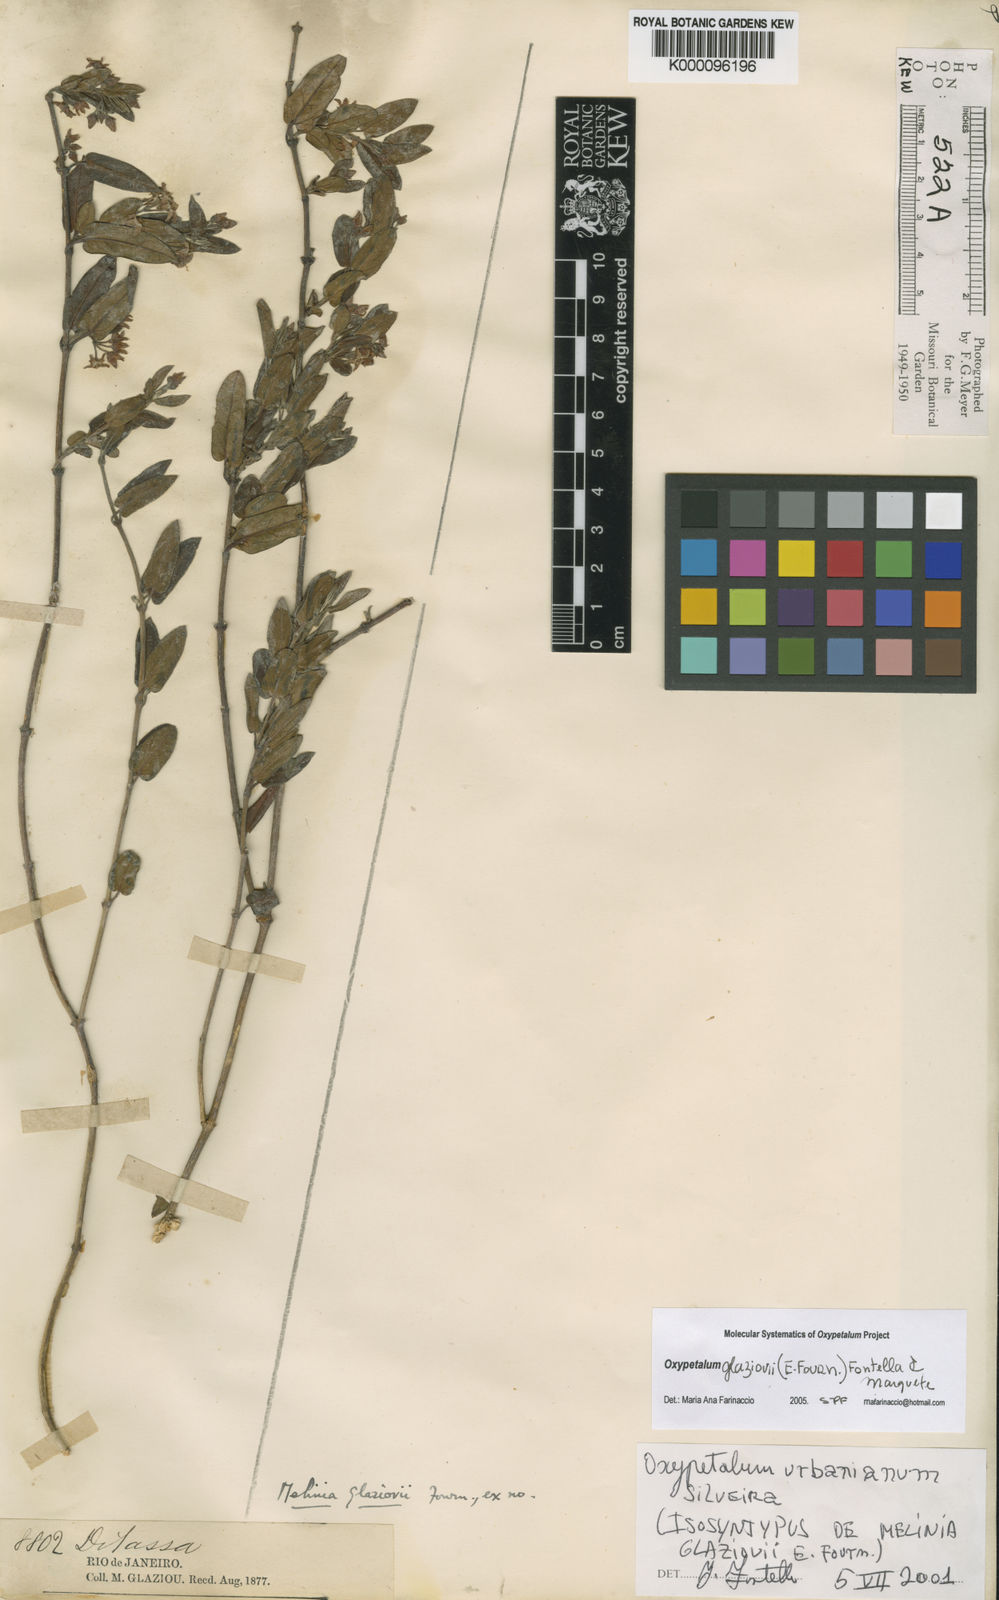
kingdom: Plantae
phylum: Tracheophyta
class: Magnoliopsida
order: Gentianales
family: Apocynaceae
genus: Oxypetalum
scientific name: Oxypetalum glaziovii
